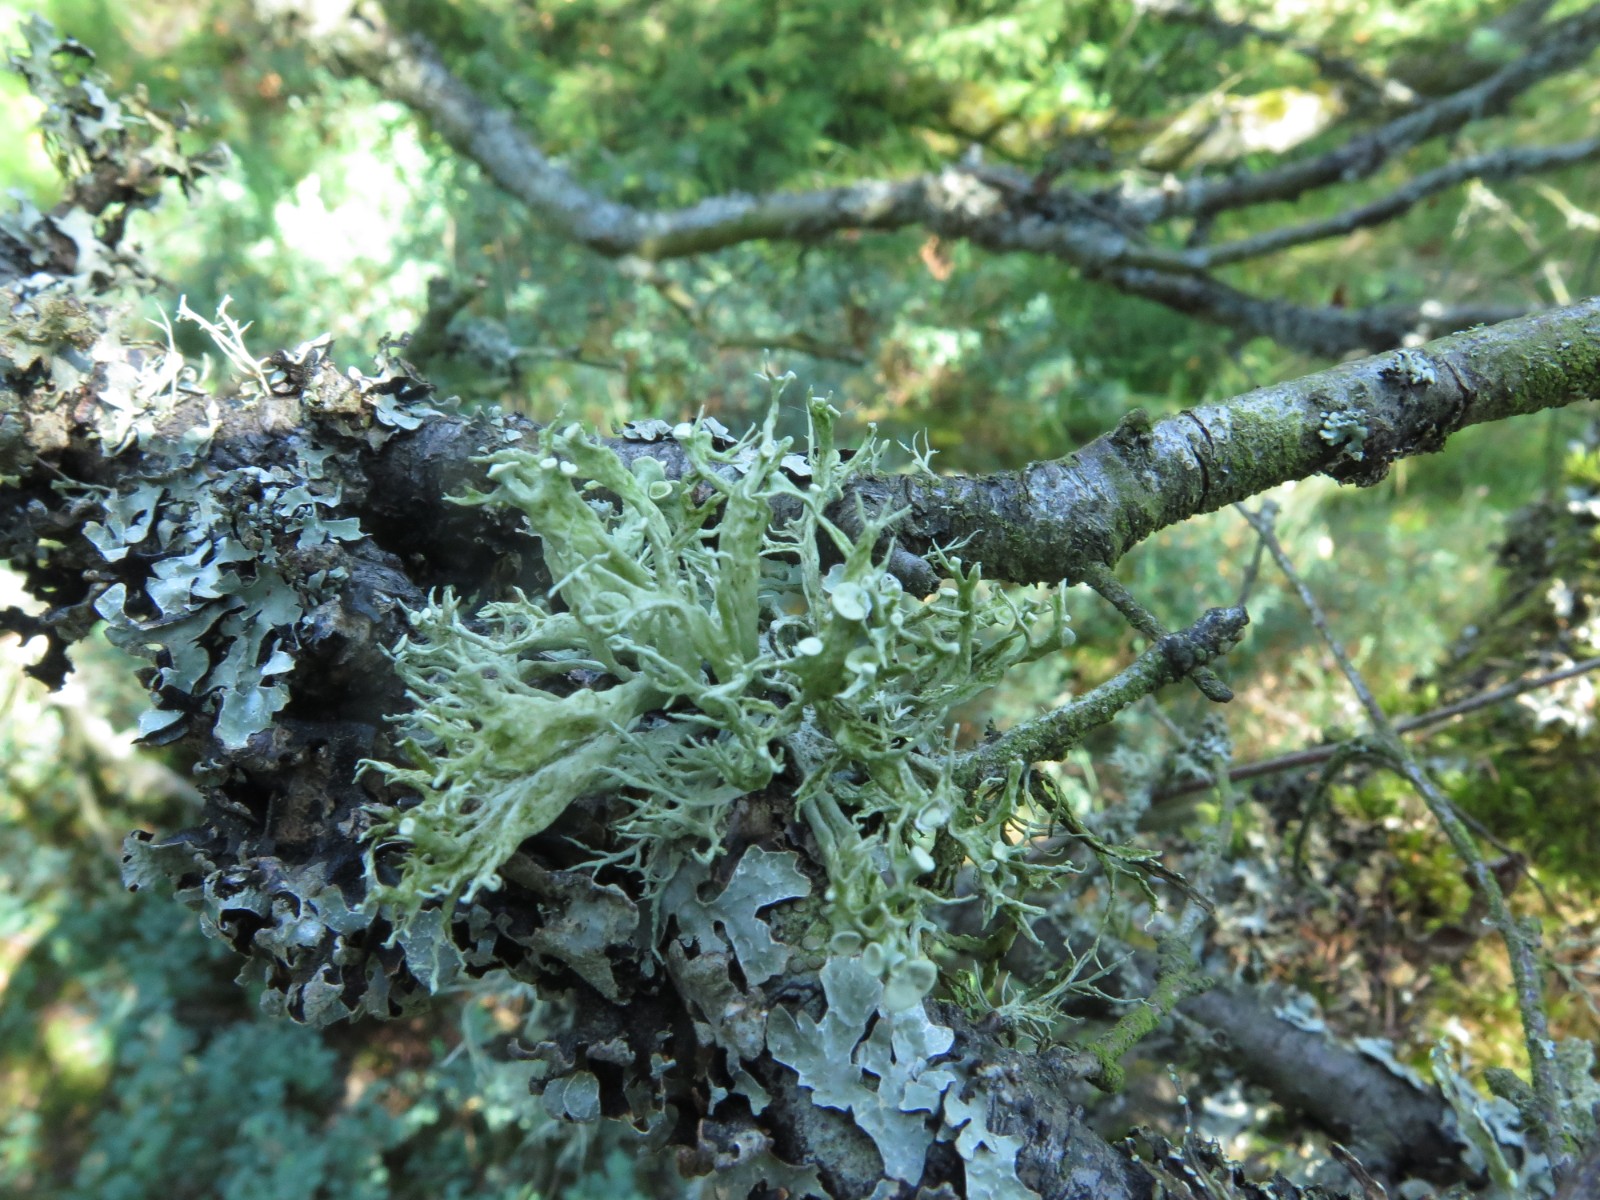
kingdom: Fungi
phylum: Ascomycota
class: Lecanoromycetes
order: Lecanorales
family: Ramalinaceae
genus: Ramalina
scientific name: Ramalina fastigiata
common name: tue-grenlav
